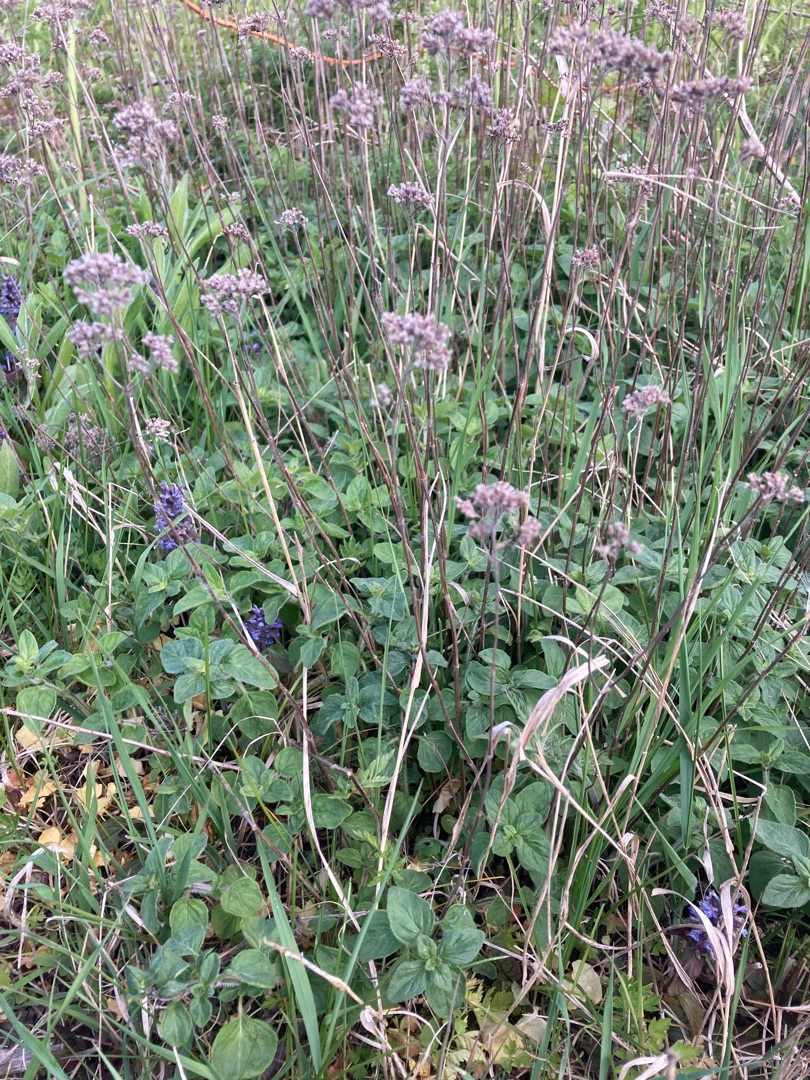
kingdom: Plantae
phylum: Tracheophyta
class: Magnoliopsida
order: Lamiales
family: Lamiaceae
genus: Origanum
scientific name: Origanum vulgare
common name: Merian
